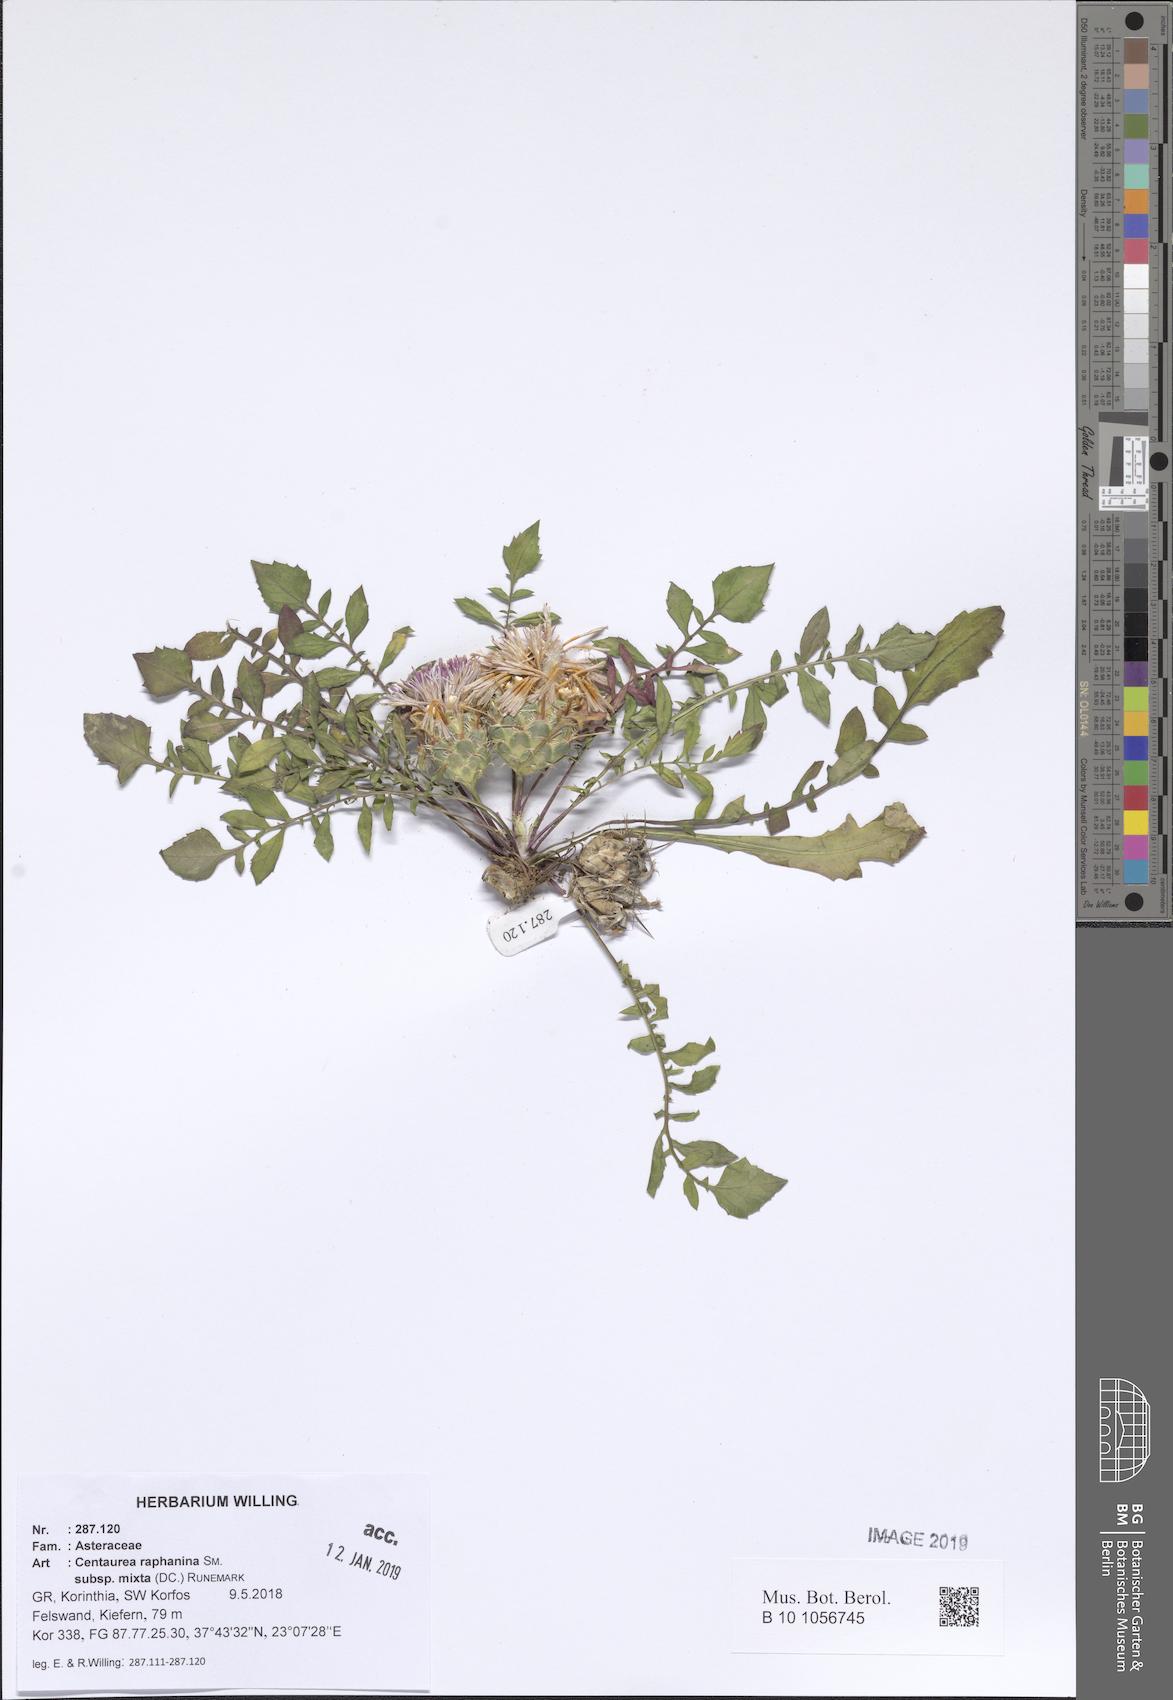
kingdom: Plantae
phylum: Tracheophyta
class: Magnoliopsida
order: Asterales
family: Asteraceae
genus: Centaurea
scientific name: Centaurea raphanina
